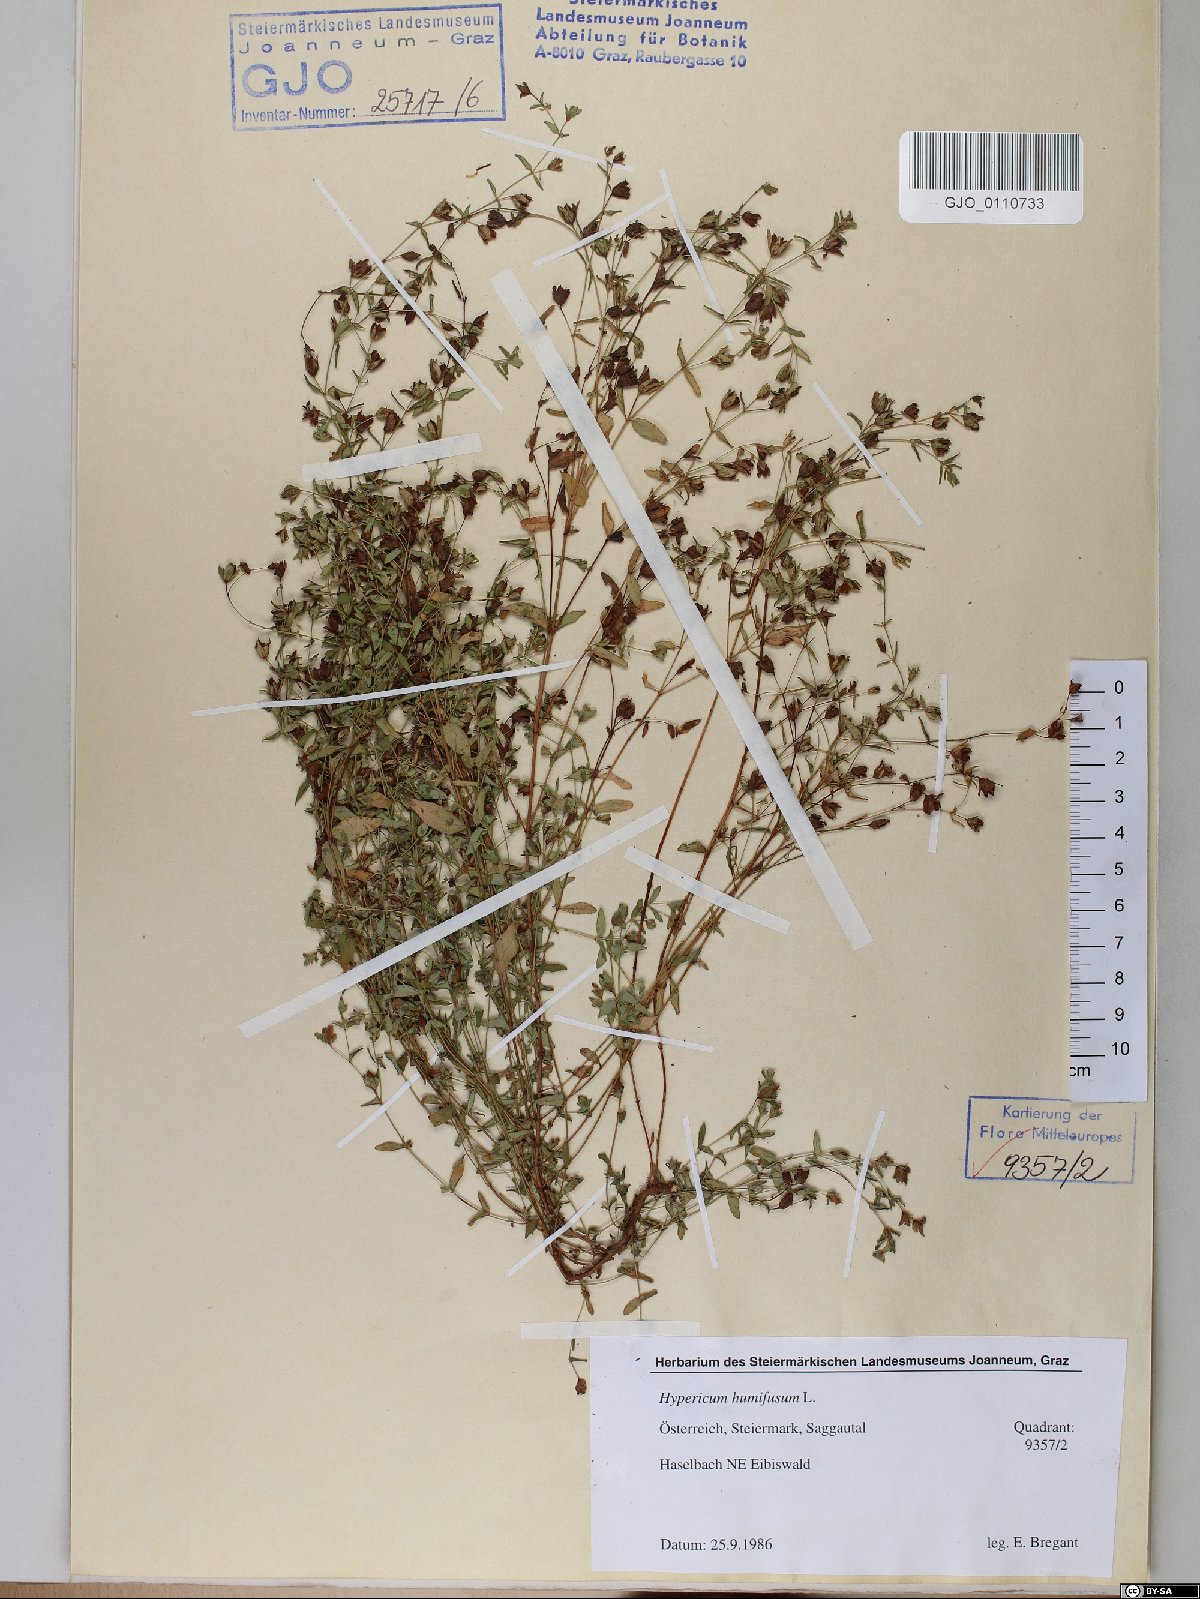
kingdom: Plantae
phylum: Tracheophyta
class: Magnoliopsida
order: Malpighiales
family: Hypericaceae
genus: Hypericum
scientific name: Hypericum humifusum
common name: Trailing st. john's-wort
